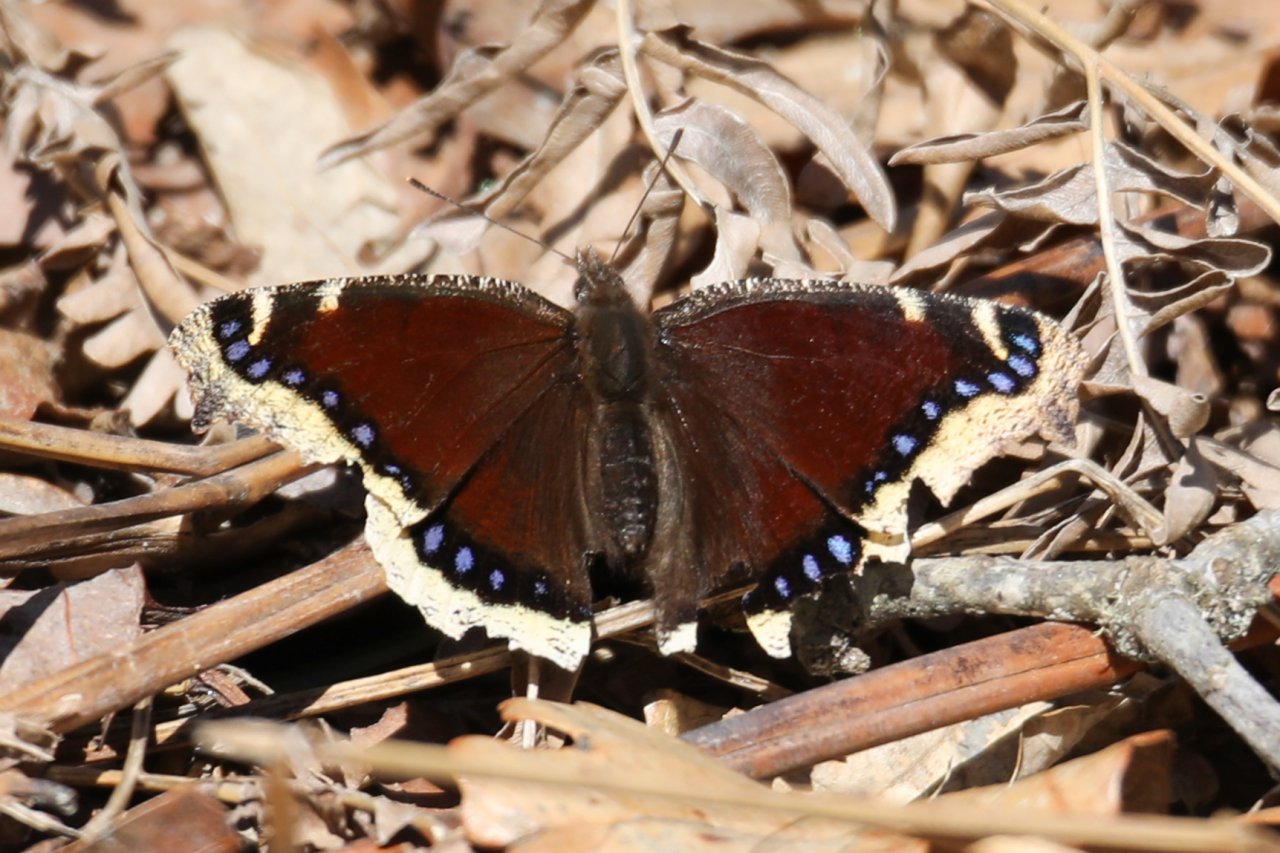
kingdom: Animalia
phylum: Arthropoda
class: Insecta
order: Lepidoptera
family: Nymphalidae
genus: Nymphalis
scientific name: Nymphalis antiopa
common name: Mourning Cloak
